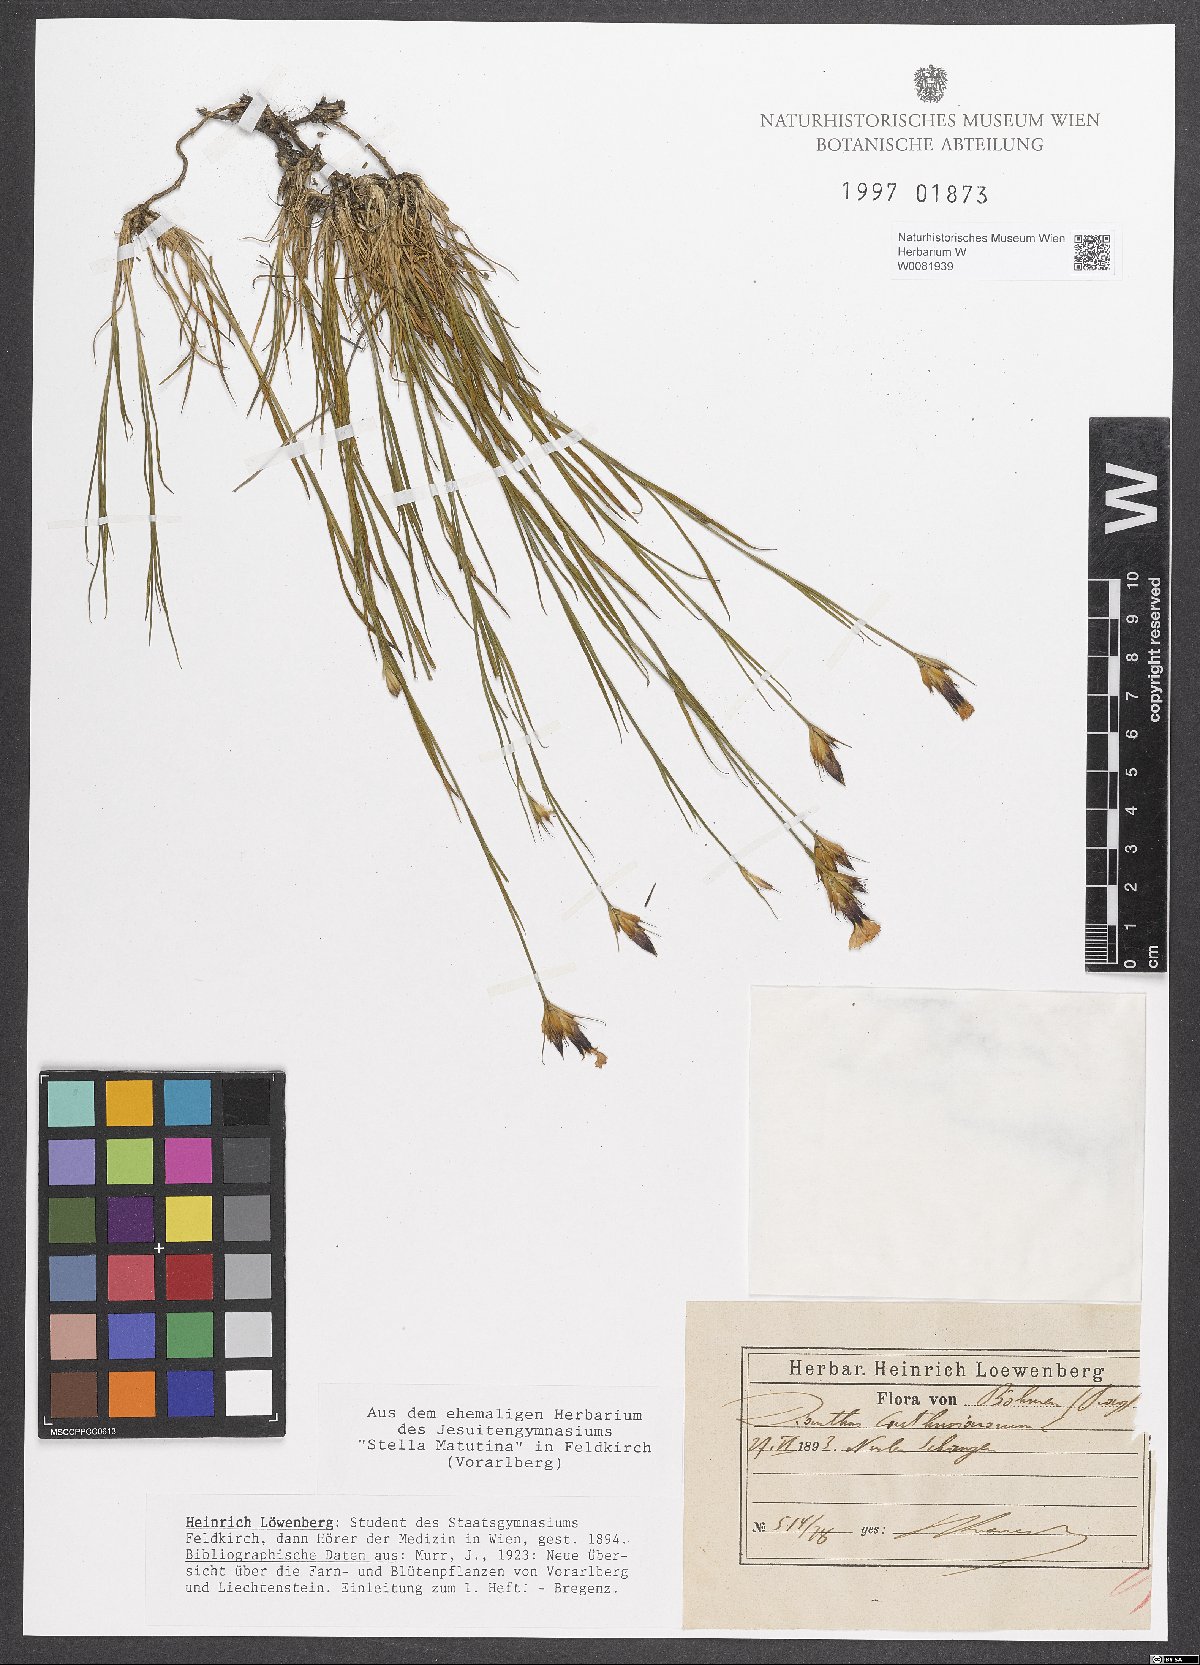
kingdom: Plantae
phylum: Tracheophyta
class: Magnoliopsida
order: Caryophyllales
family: Caryophyllaceae
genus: Dianthus
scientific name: Dianthus carthusianorum
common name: Carthusian pink
